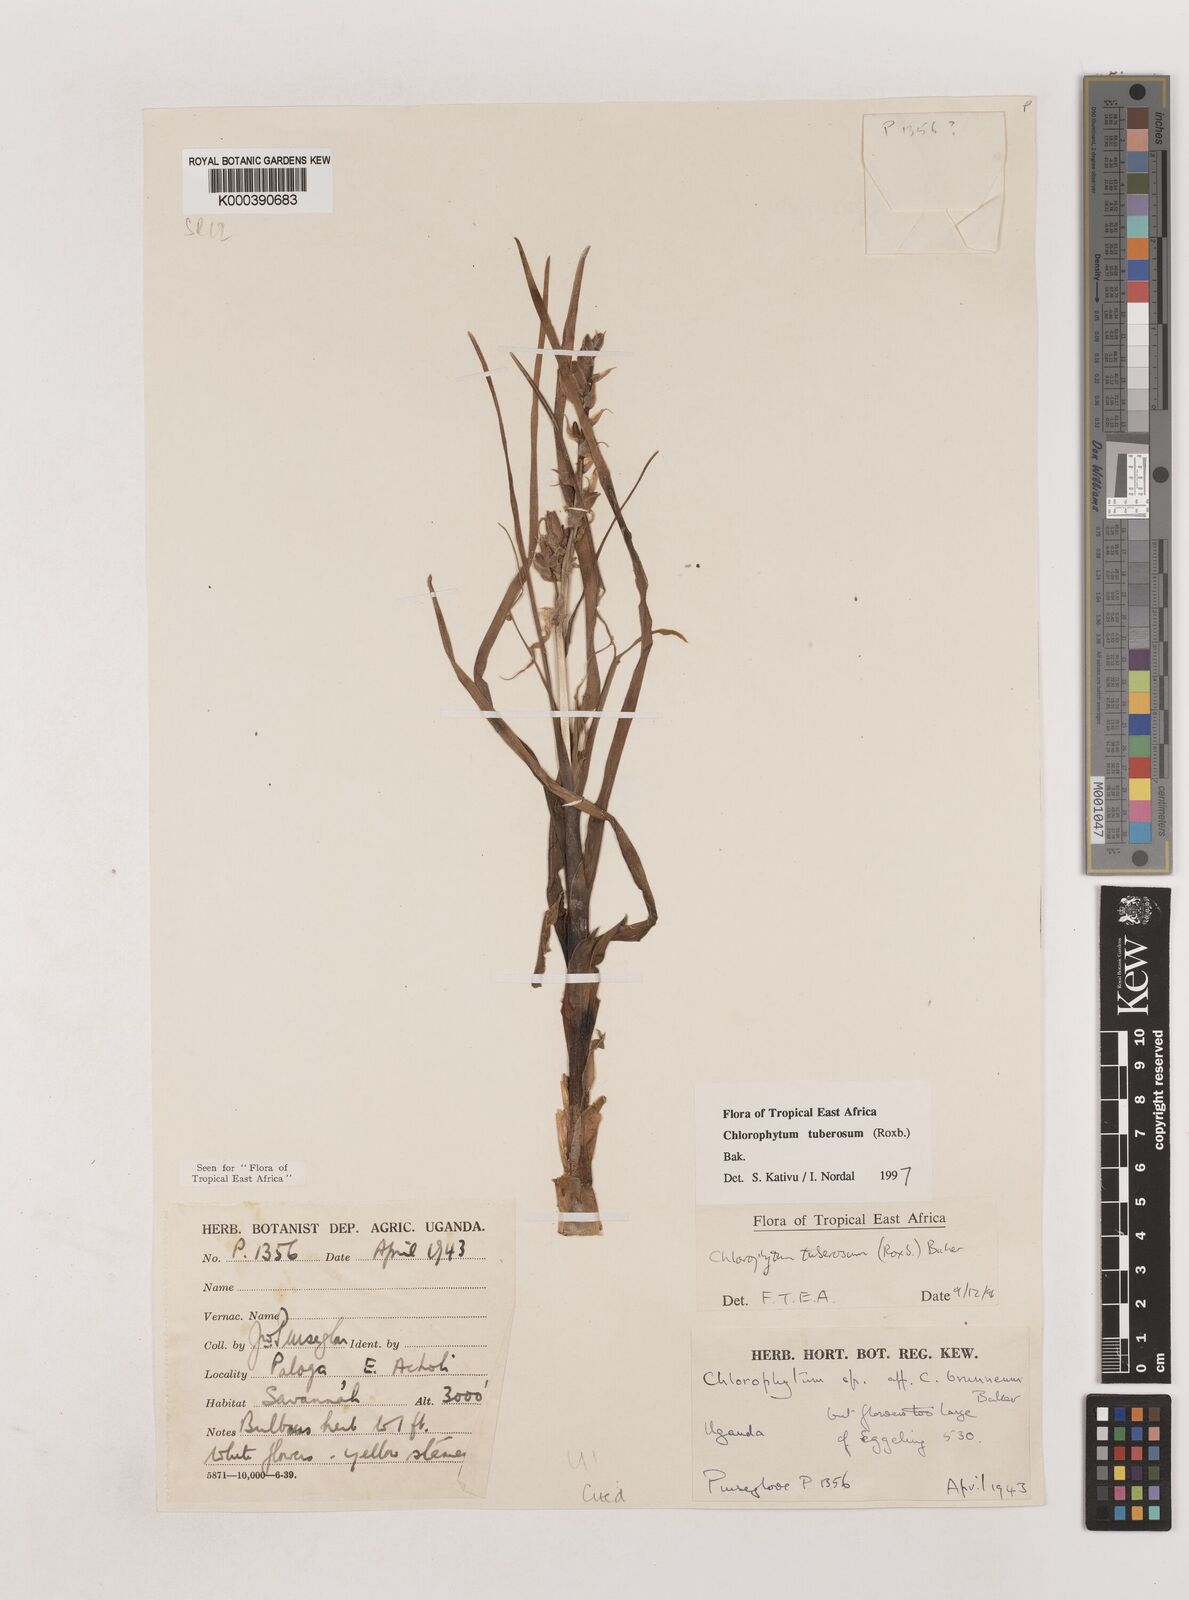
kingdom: Plantae
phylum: Tracheophyta
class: Liliopsida
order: Asparagales
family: Asparagaceae
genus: Chlorophytum
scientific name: Chlorophytum tuberosum
